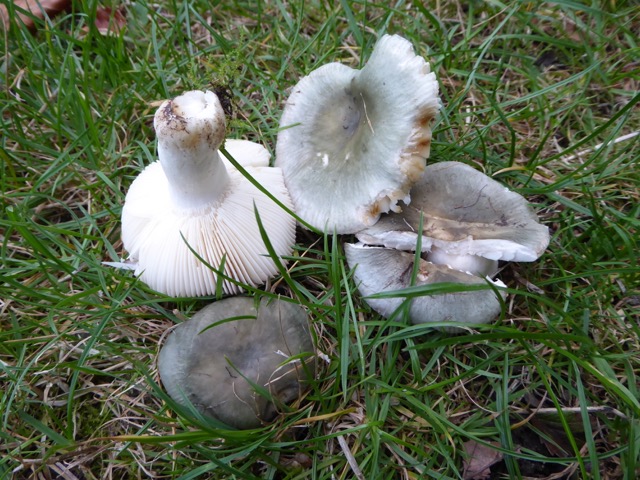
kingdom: Fungi
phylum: Basidiomycota
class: Agaricomycetes
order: Russulales
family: Russulaceae
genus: Russula
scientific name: Russula parazurea
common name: blågrå skørhat
